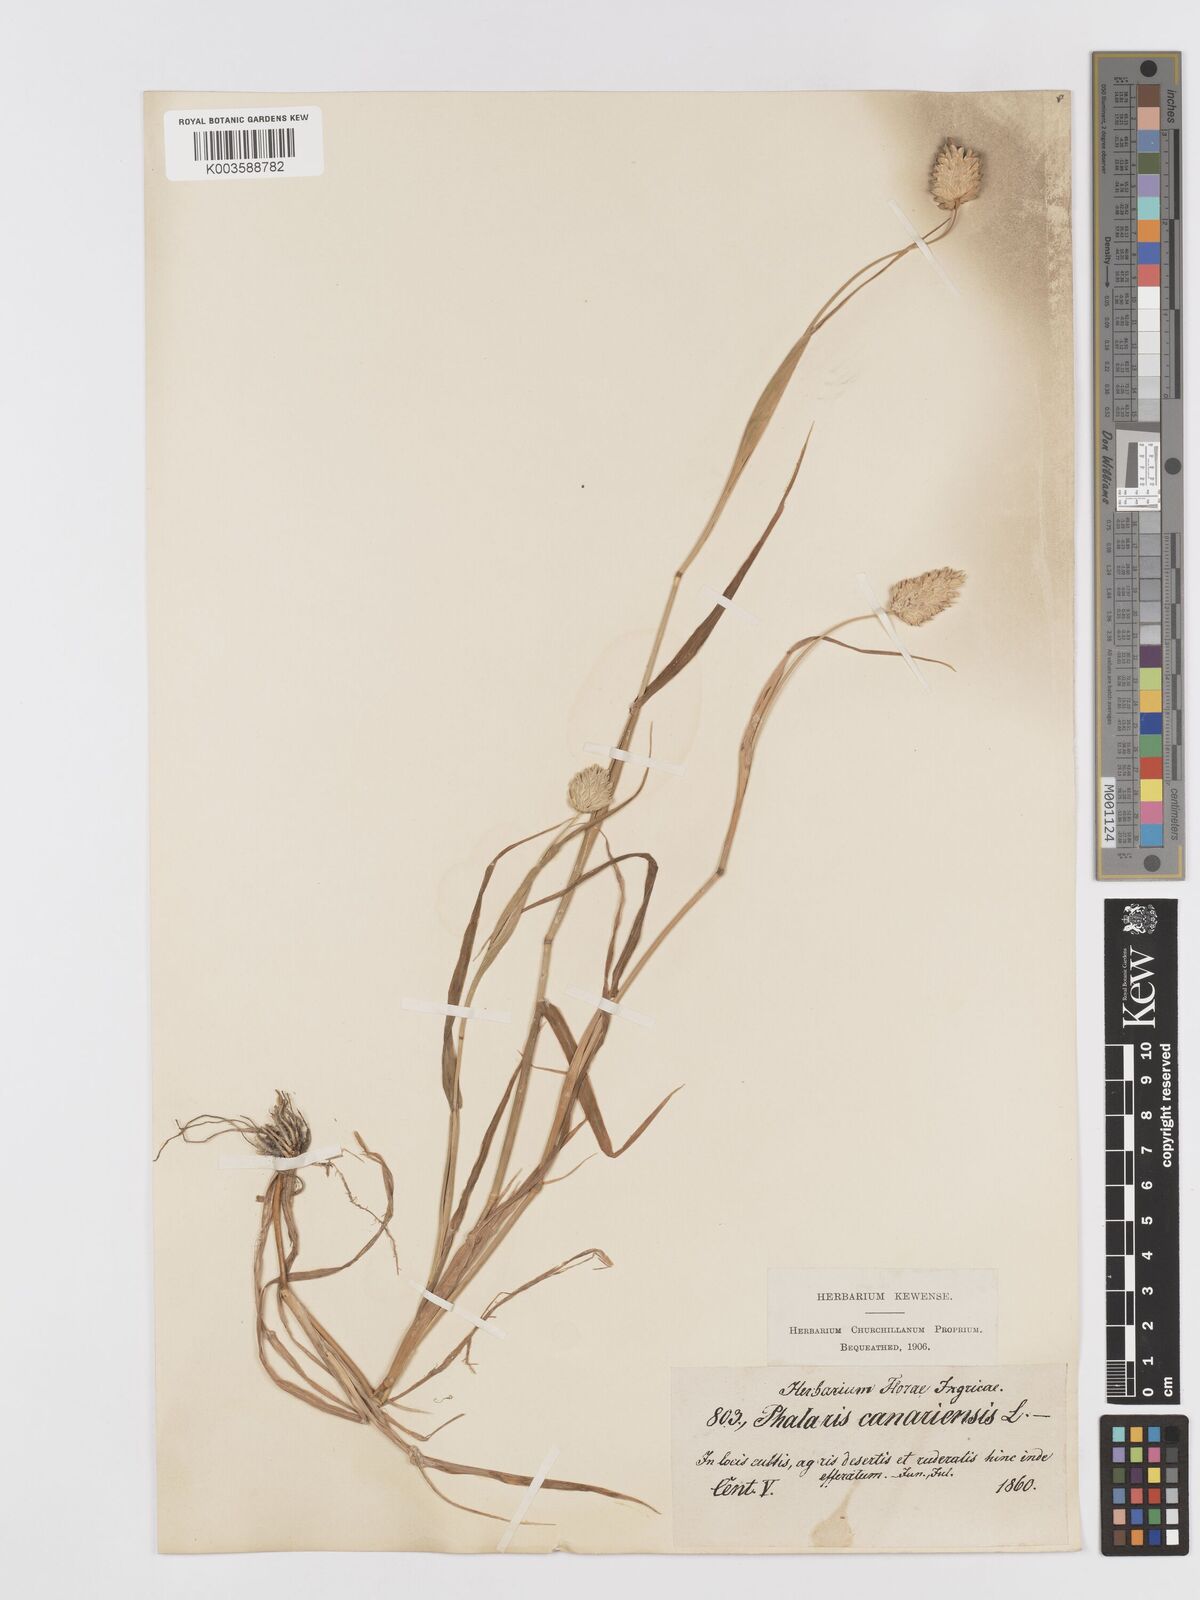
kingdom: Plantae
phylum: Tracheophyta
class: Liliopsida
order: Poales
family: Poaceae
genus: Phalaris
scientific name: Phalaris canariensis
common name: Annual canarygrass
